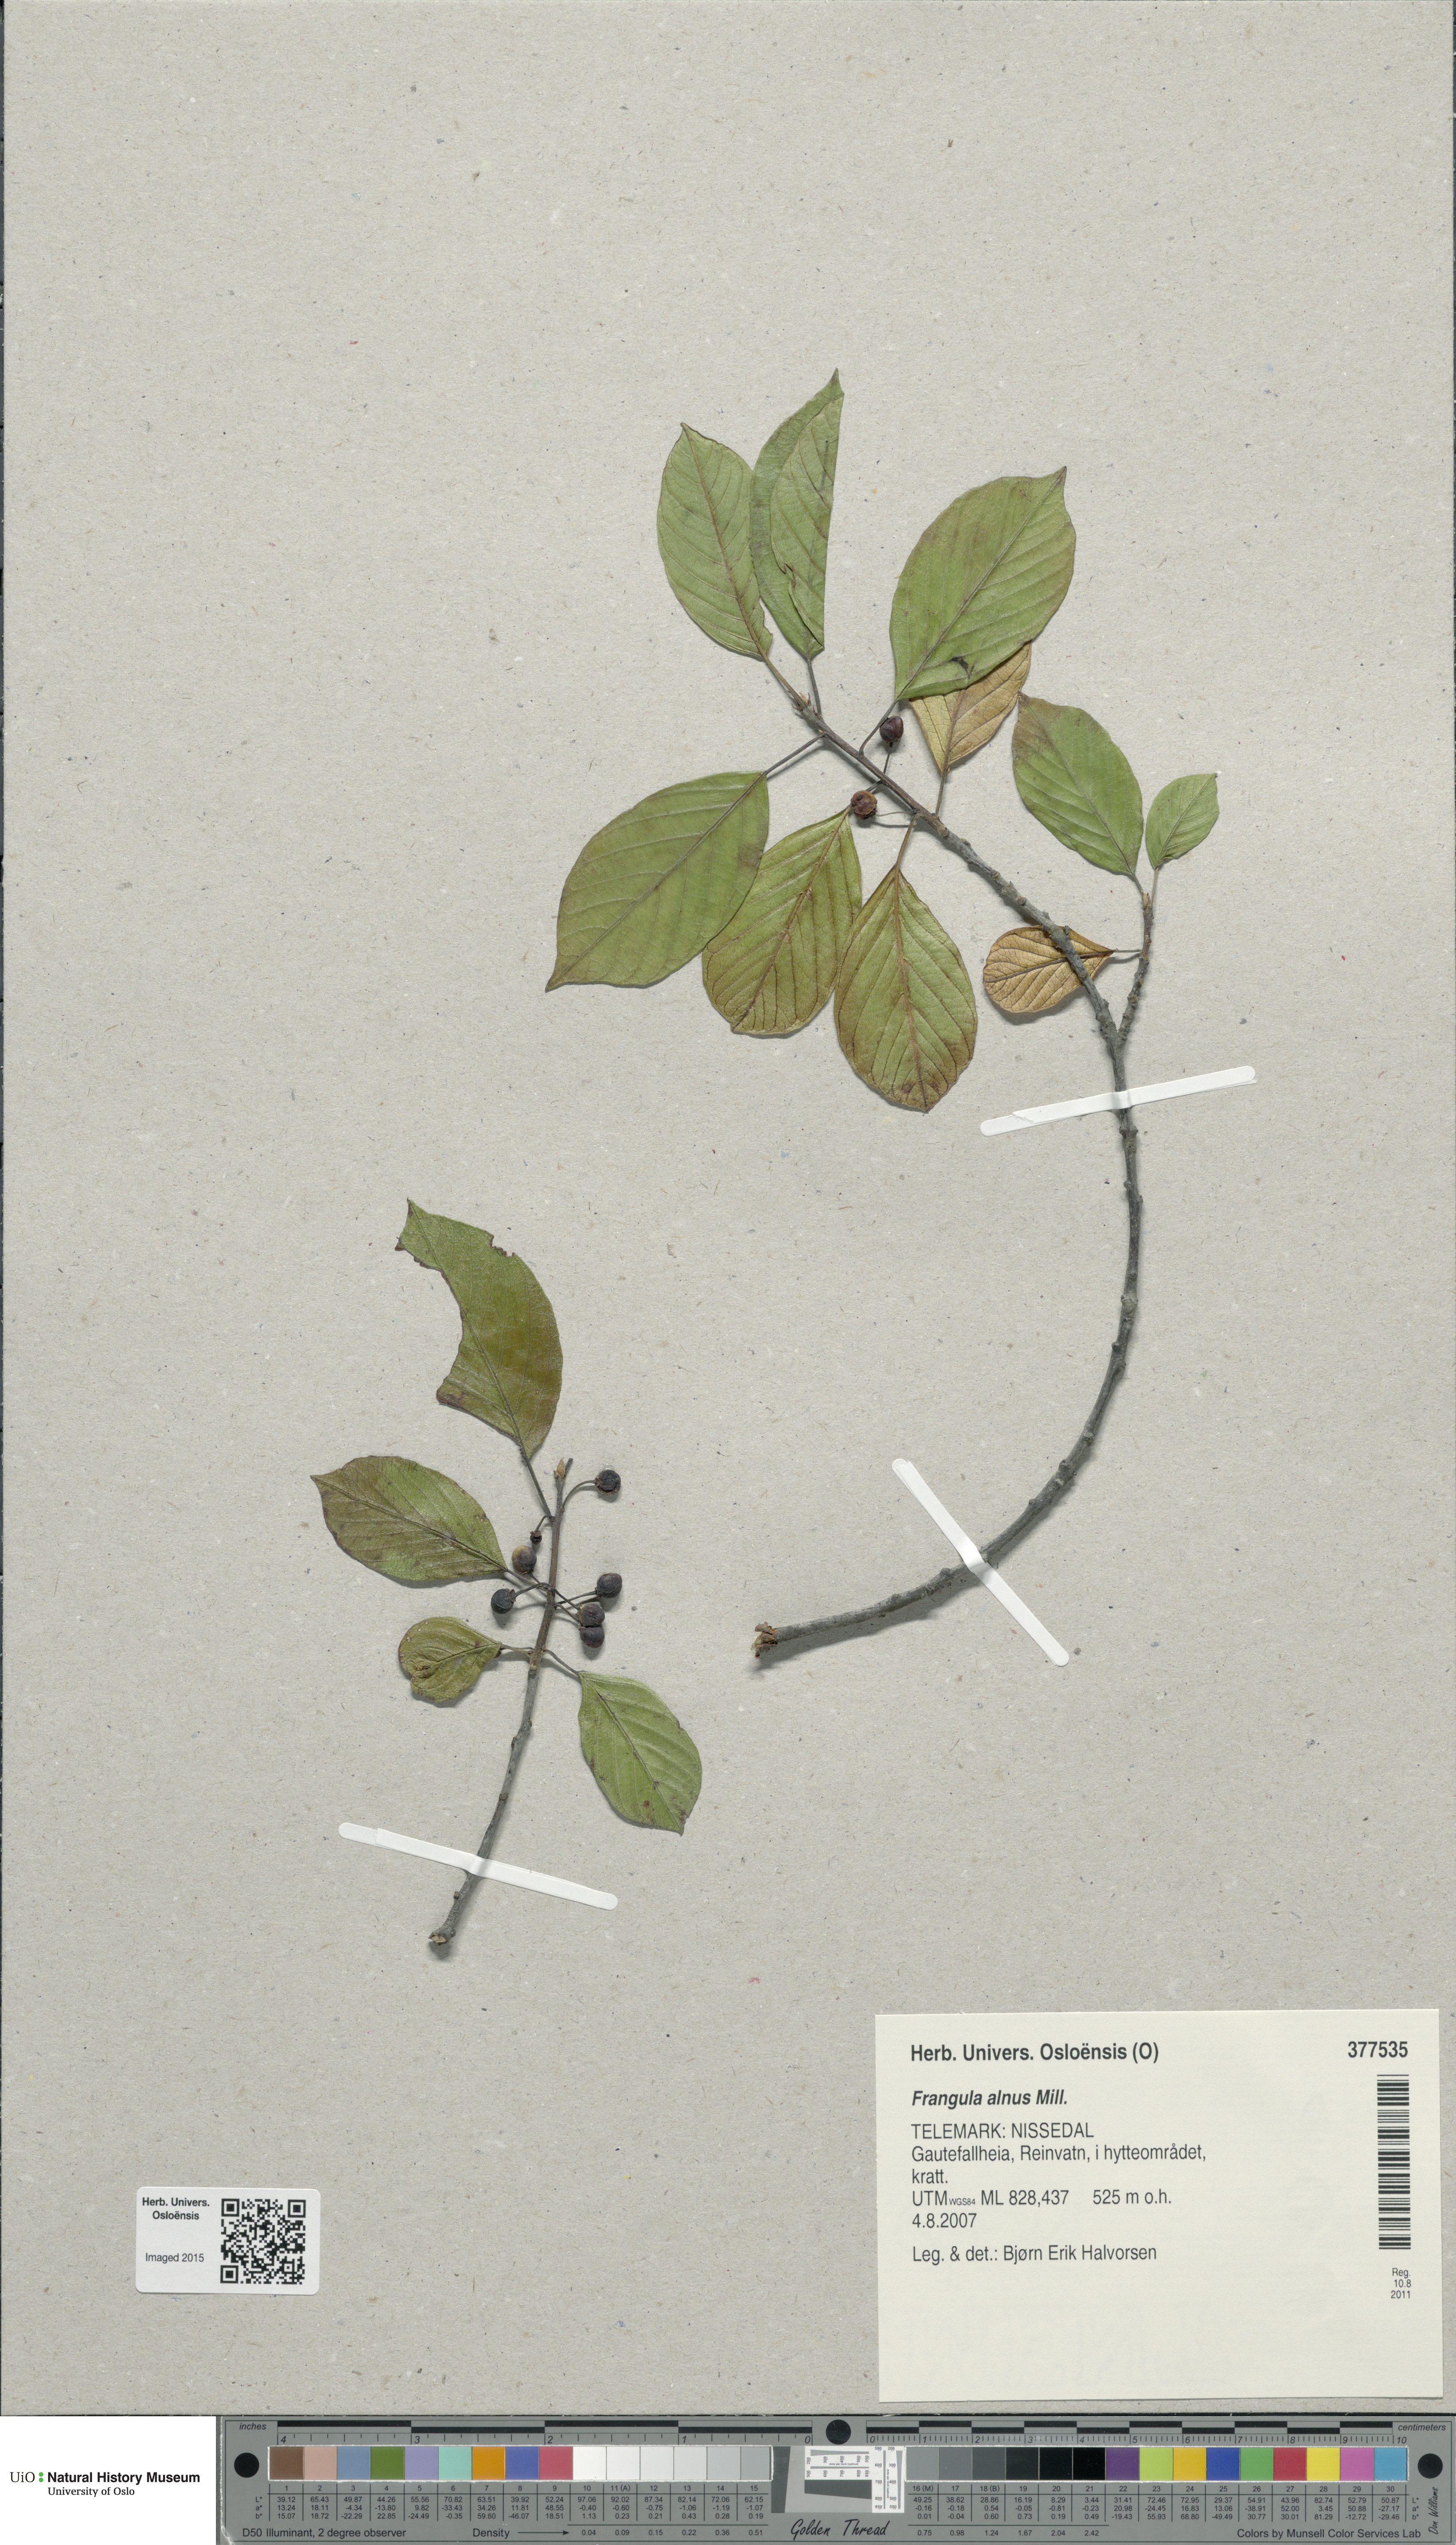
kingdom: Plantae
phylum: Tracheophyta
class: Magnoliopsida
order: Rosales
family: Rhamnaceae
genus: Frangula
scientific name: Frangula alnus
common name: Alder buckthorn
